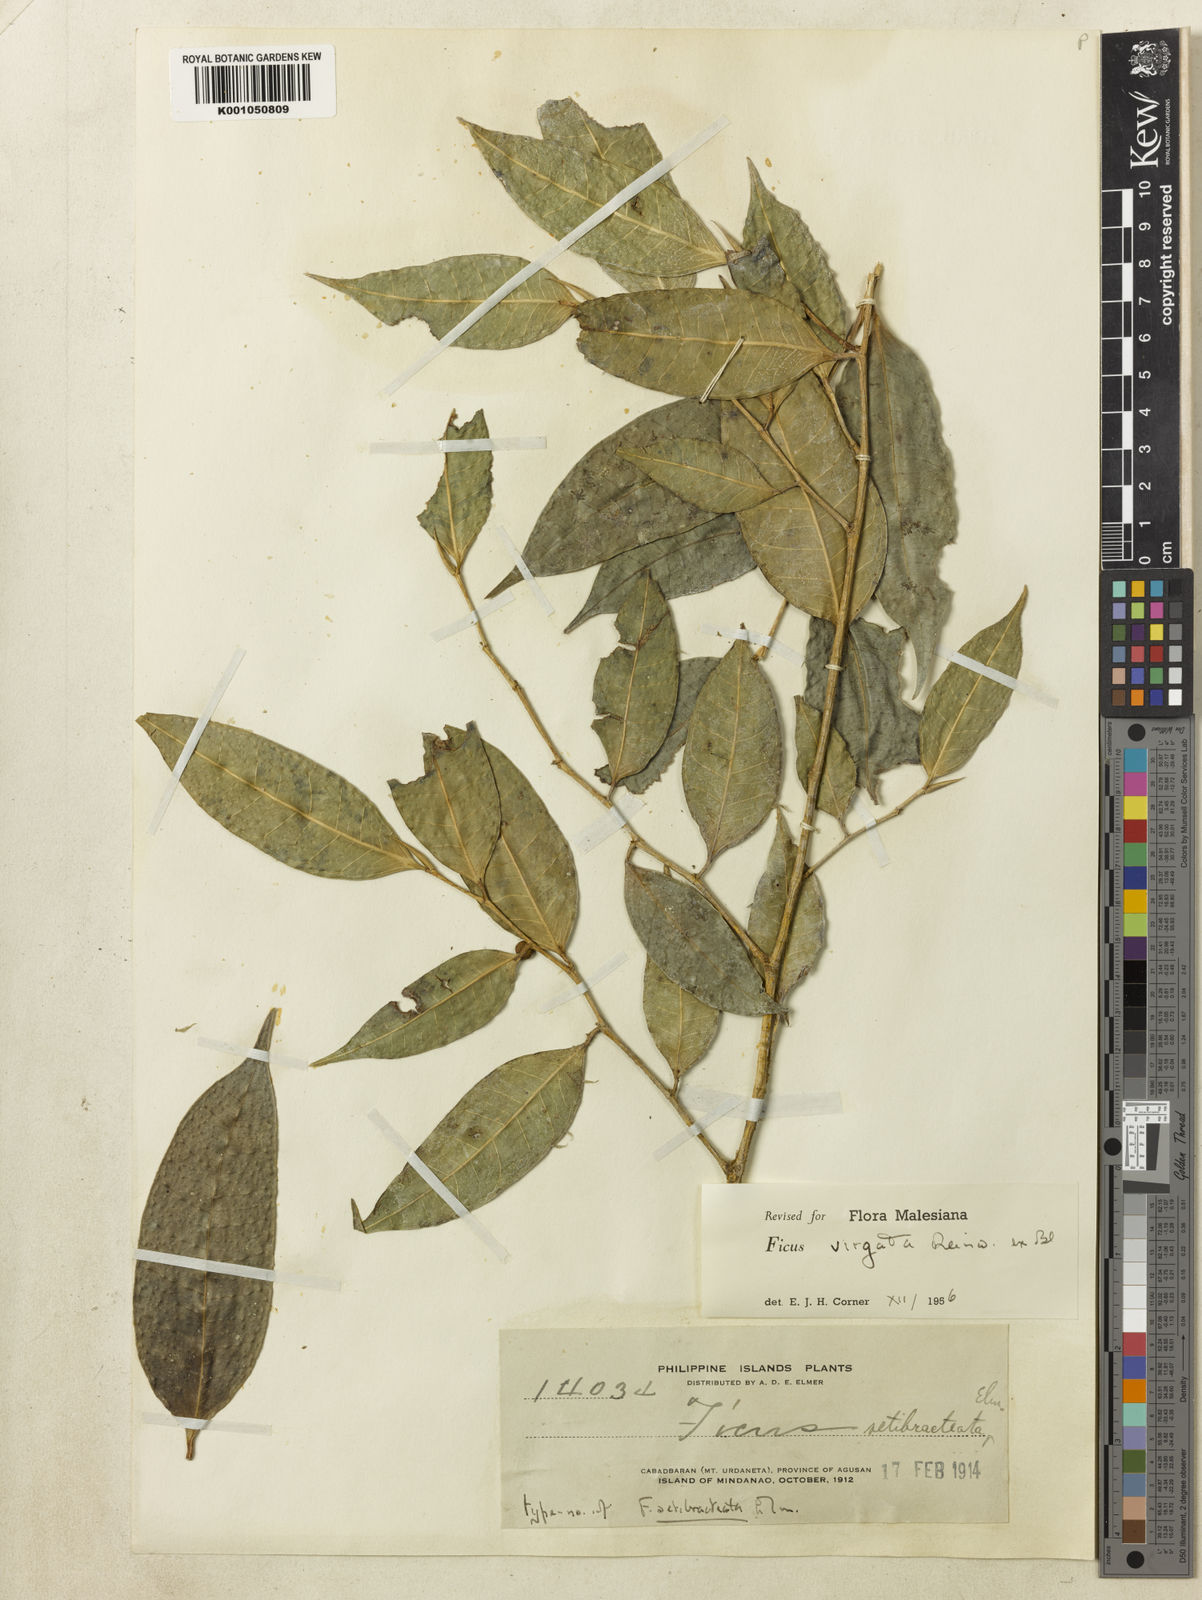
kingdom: Plantae
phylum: Tracheophyta
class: Magnoliopsida
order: Rosales
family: Moraceae
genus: Ficus
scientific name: Ficus palmata
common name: Punjab fig
